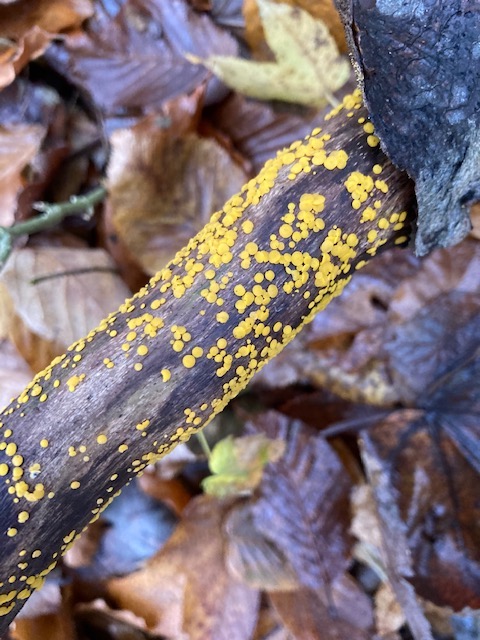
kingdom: Fungi
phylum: Ascomycota
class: Leotiomycetes
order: Helotiales
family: Pezizellaceae
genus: Calycina
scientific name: Calycina citrina
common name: almindelig gulskive
